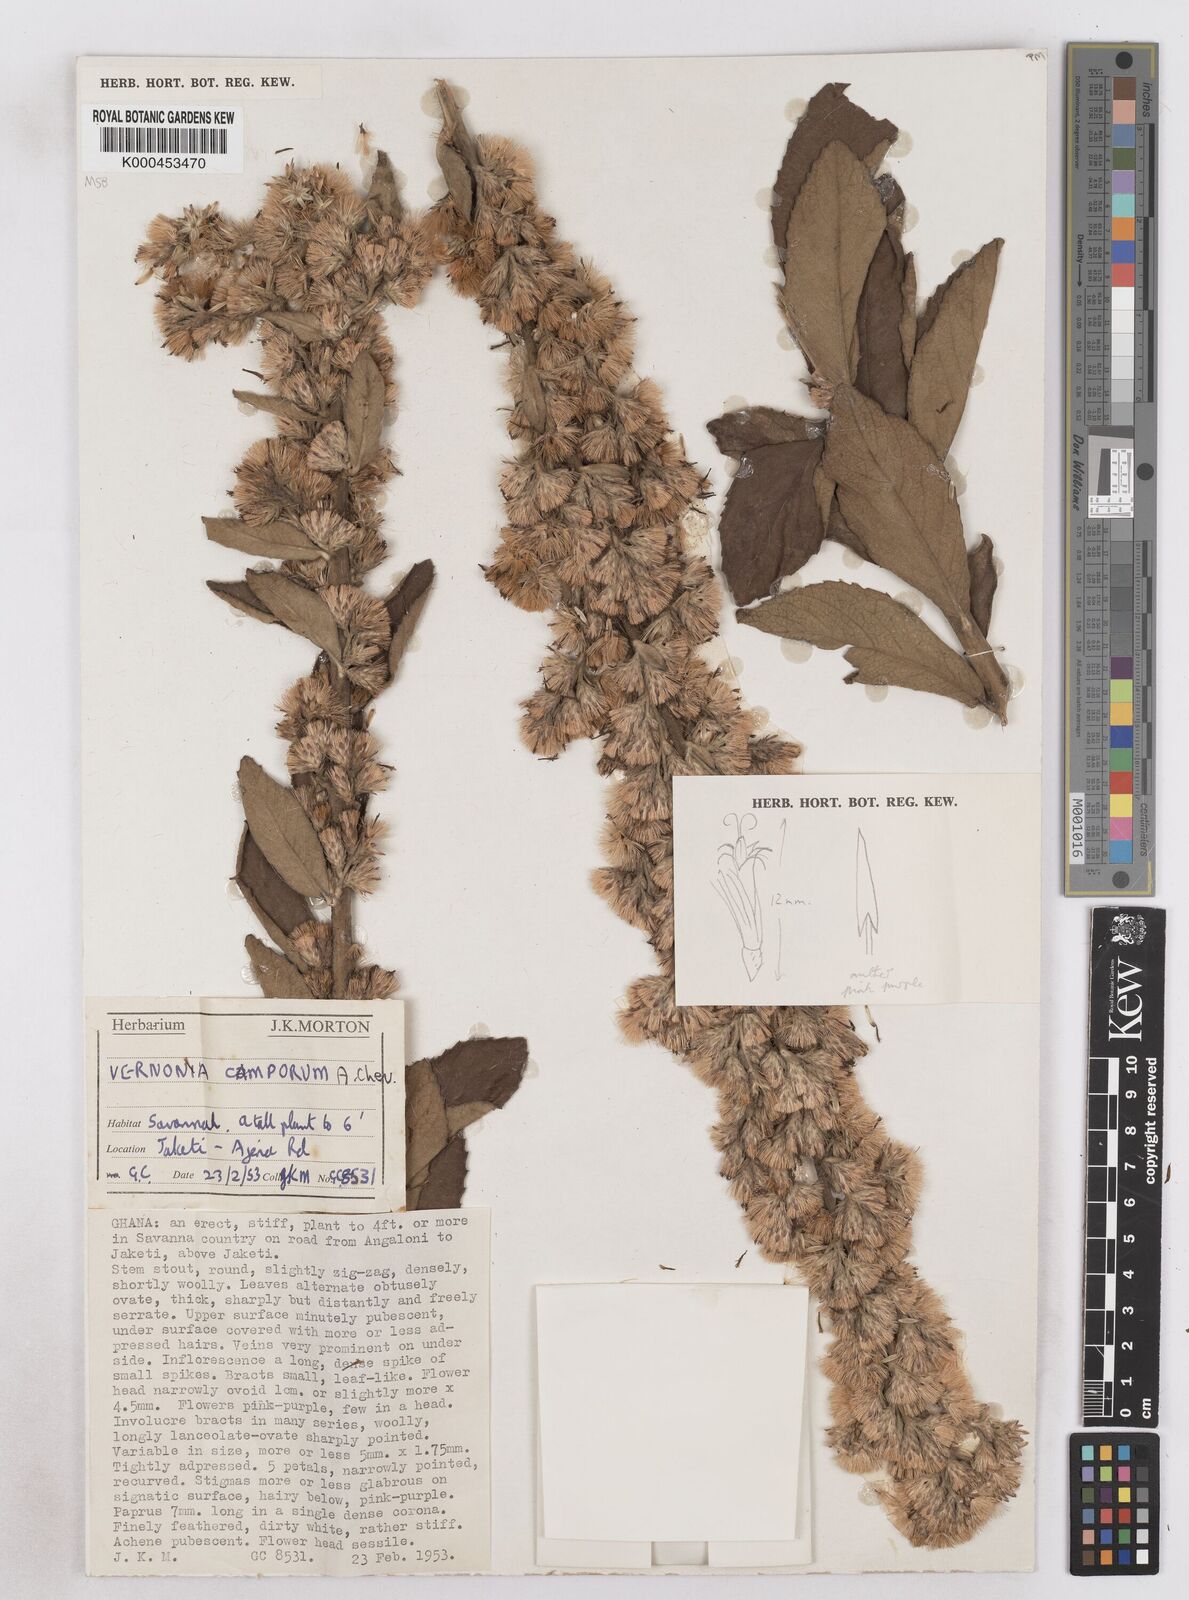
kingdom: Plantae
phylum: Tracheophyta
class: Magnoliopsida
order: Asterales
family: Asteraceae
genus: Vernoniastrum
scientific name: Vernoniastrum camporum
